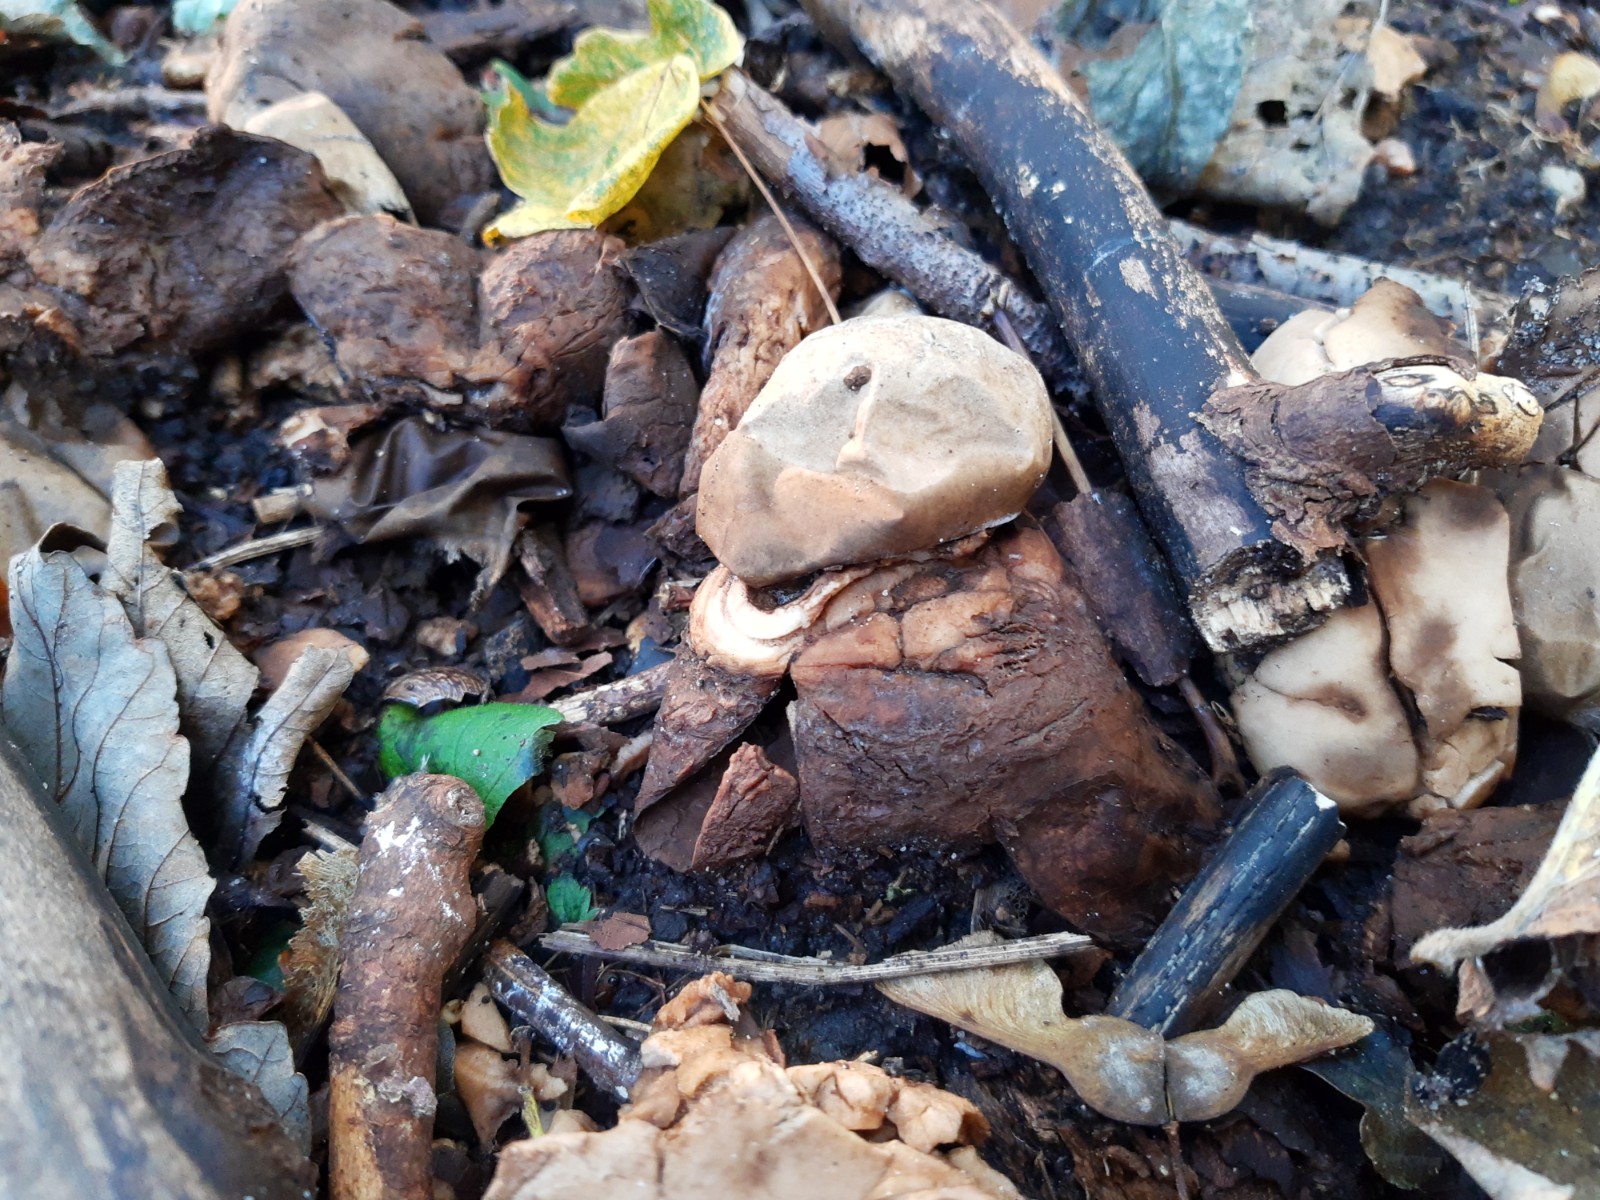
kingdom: Fungi
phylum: Basidiomycota
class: Agaricomycetes
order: Geastrales
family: Geastraceae
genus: Geastrum
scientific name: Geastrum michelianum
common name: kødet stjernebold
